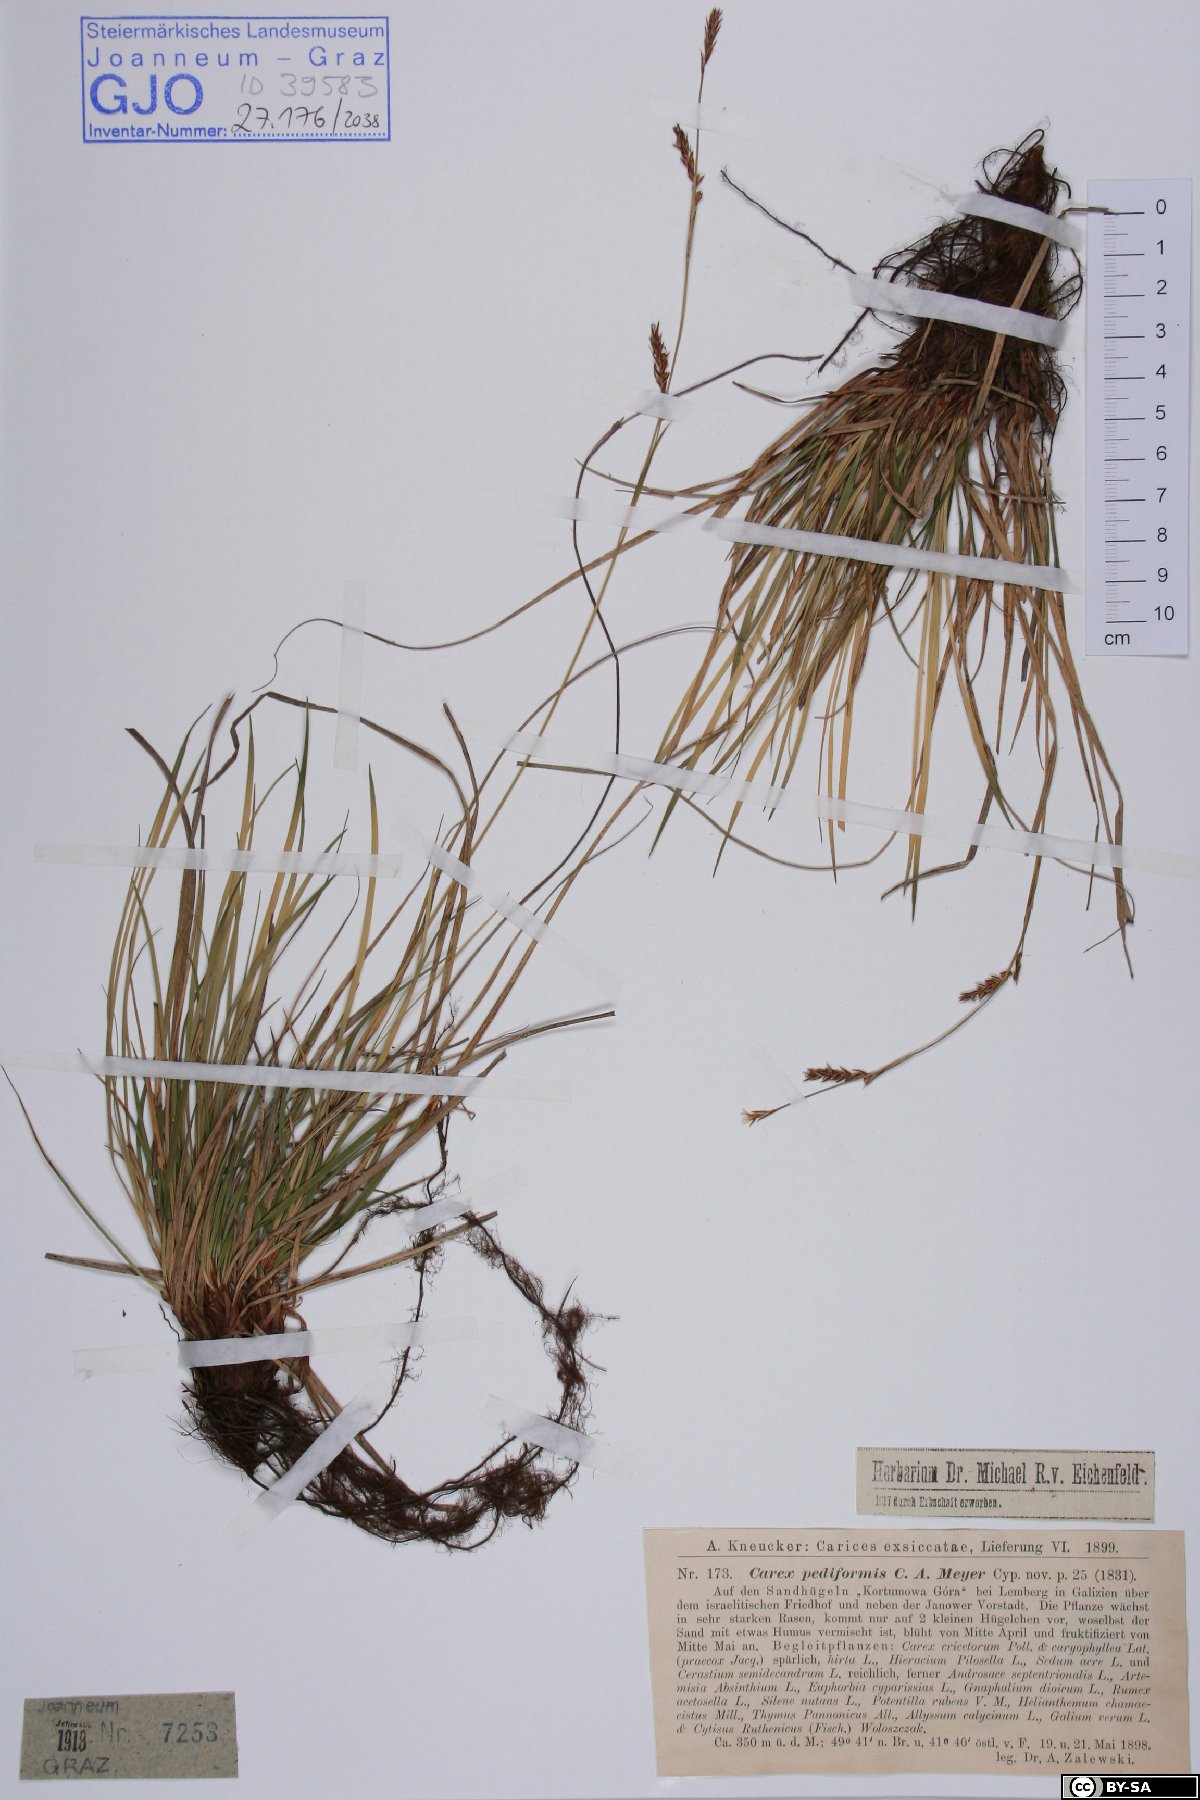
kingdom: Plantae
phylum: Tracheophyta
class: Liliopsida
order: Poales
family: Cyperaceae
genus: Carex
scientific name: Carex pediformis
